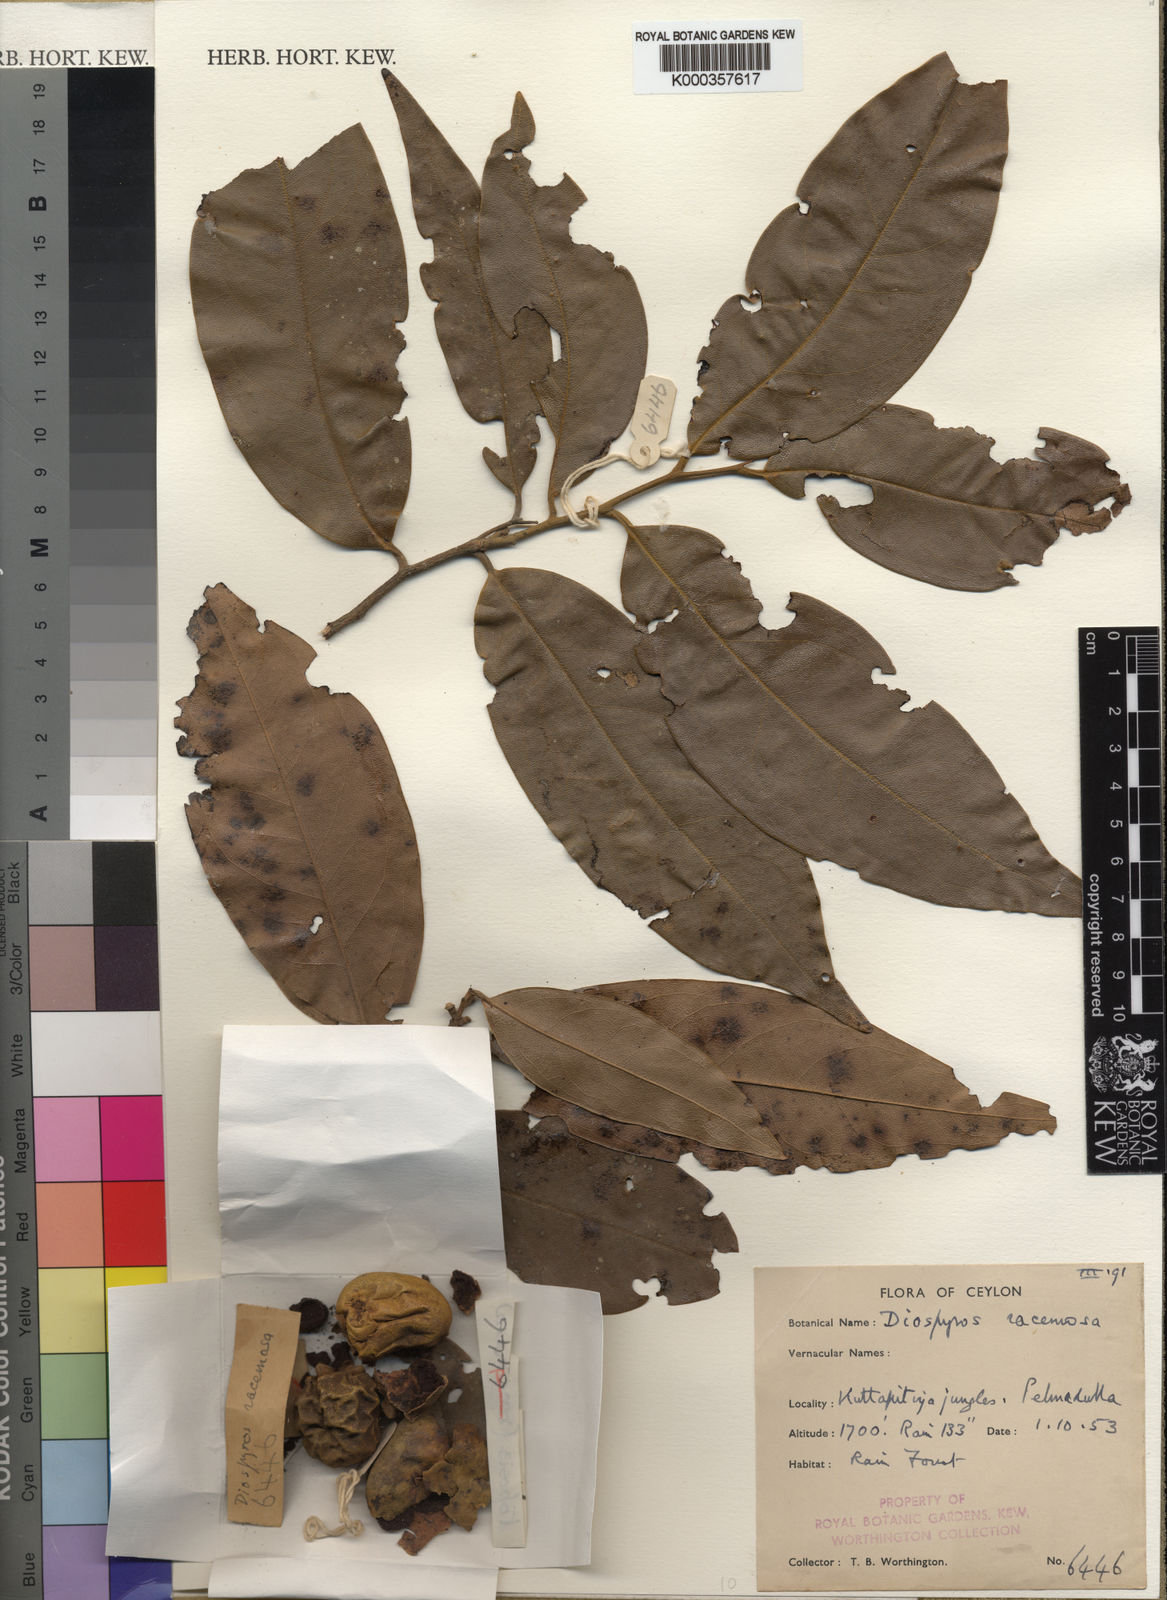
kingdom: Plantae
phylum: Tracheophyta
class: Magnoliopsida
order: Ericales
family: Ebenaceae
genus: Diospyros
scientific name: Diospyros toposia
